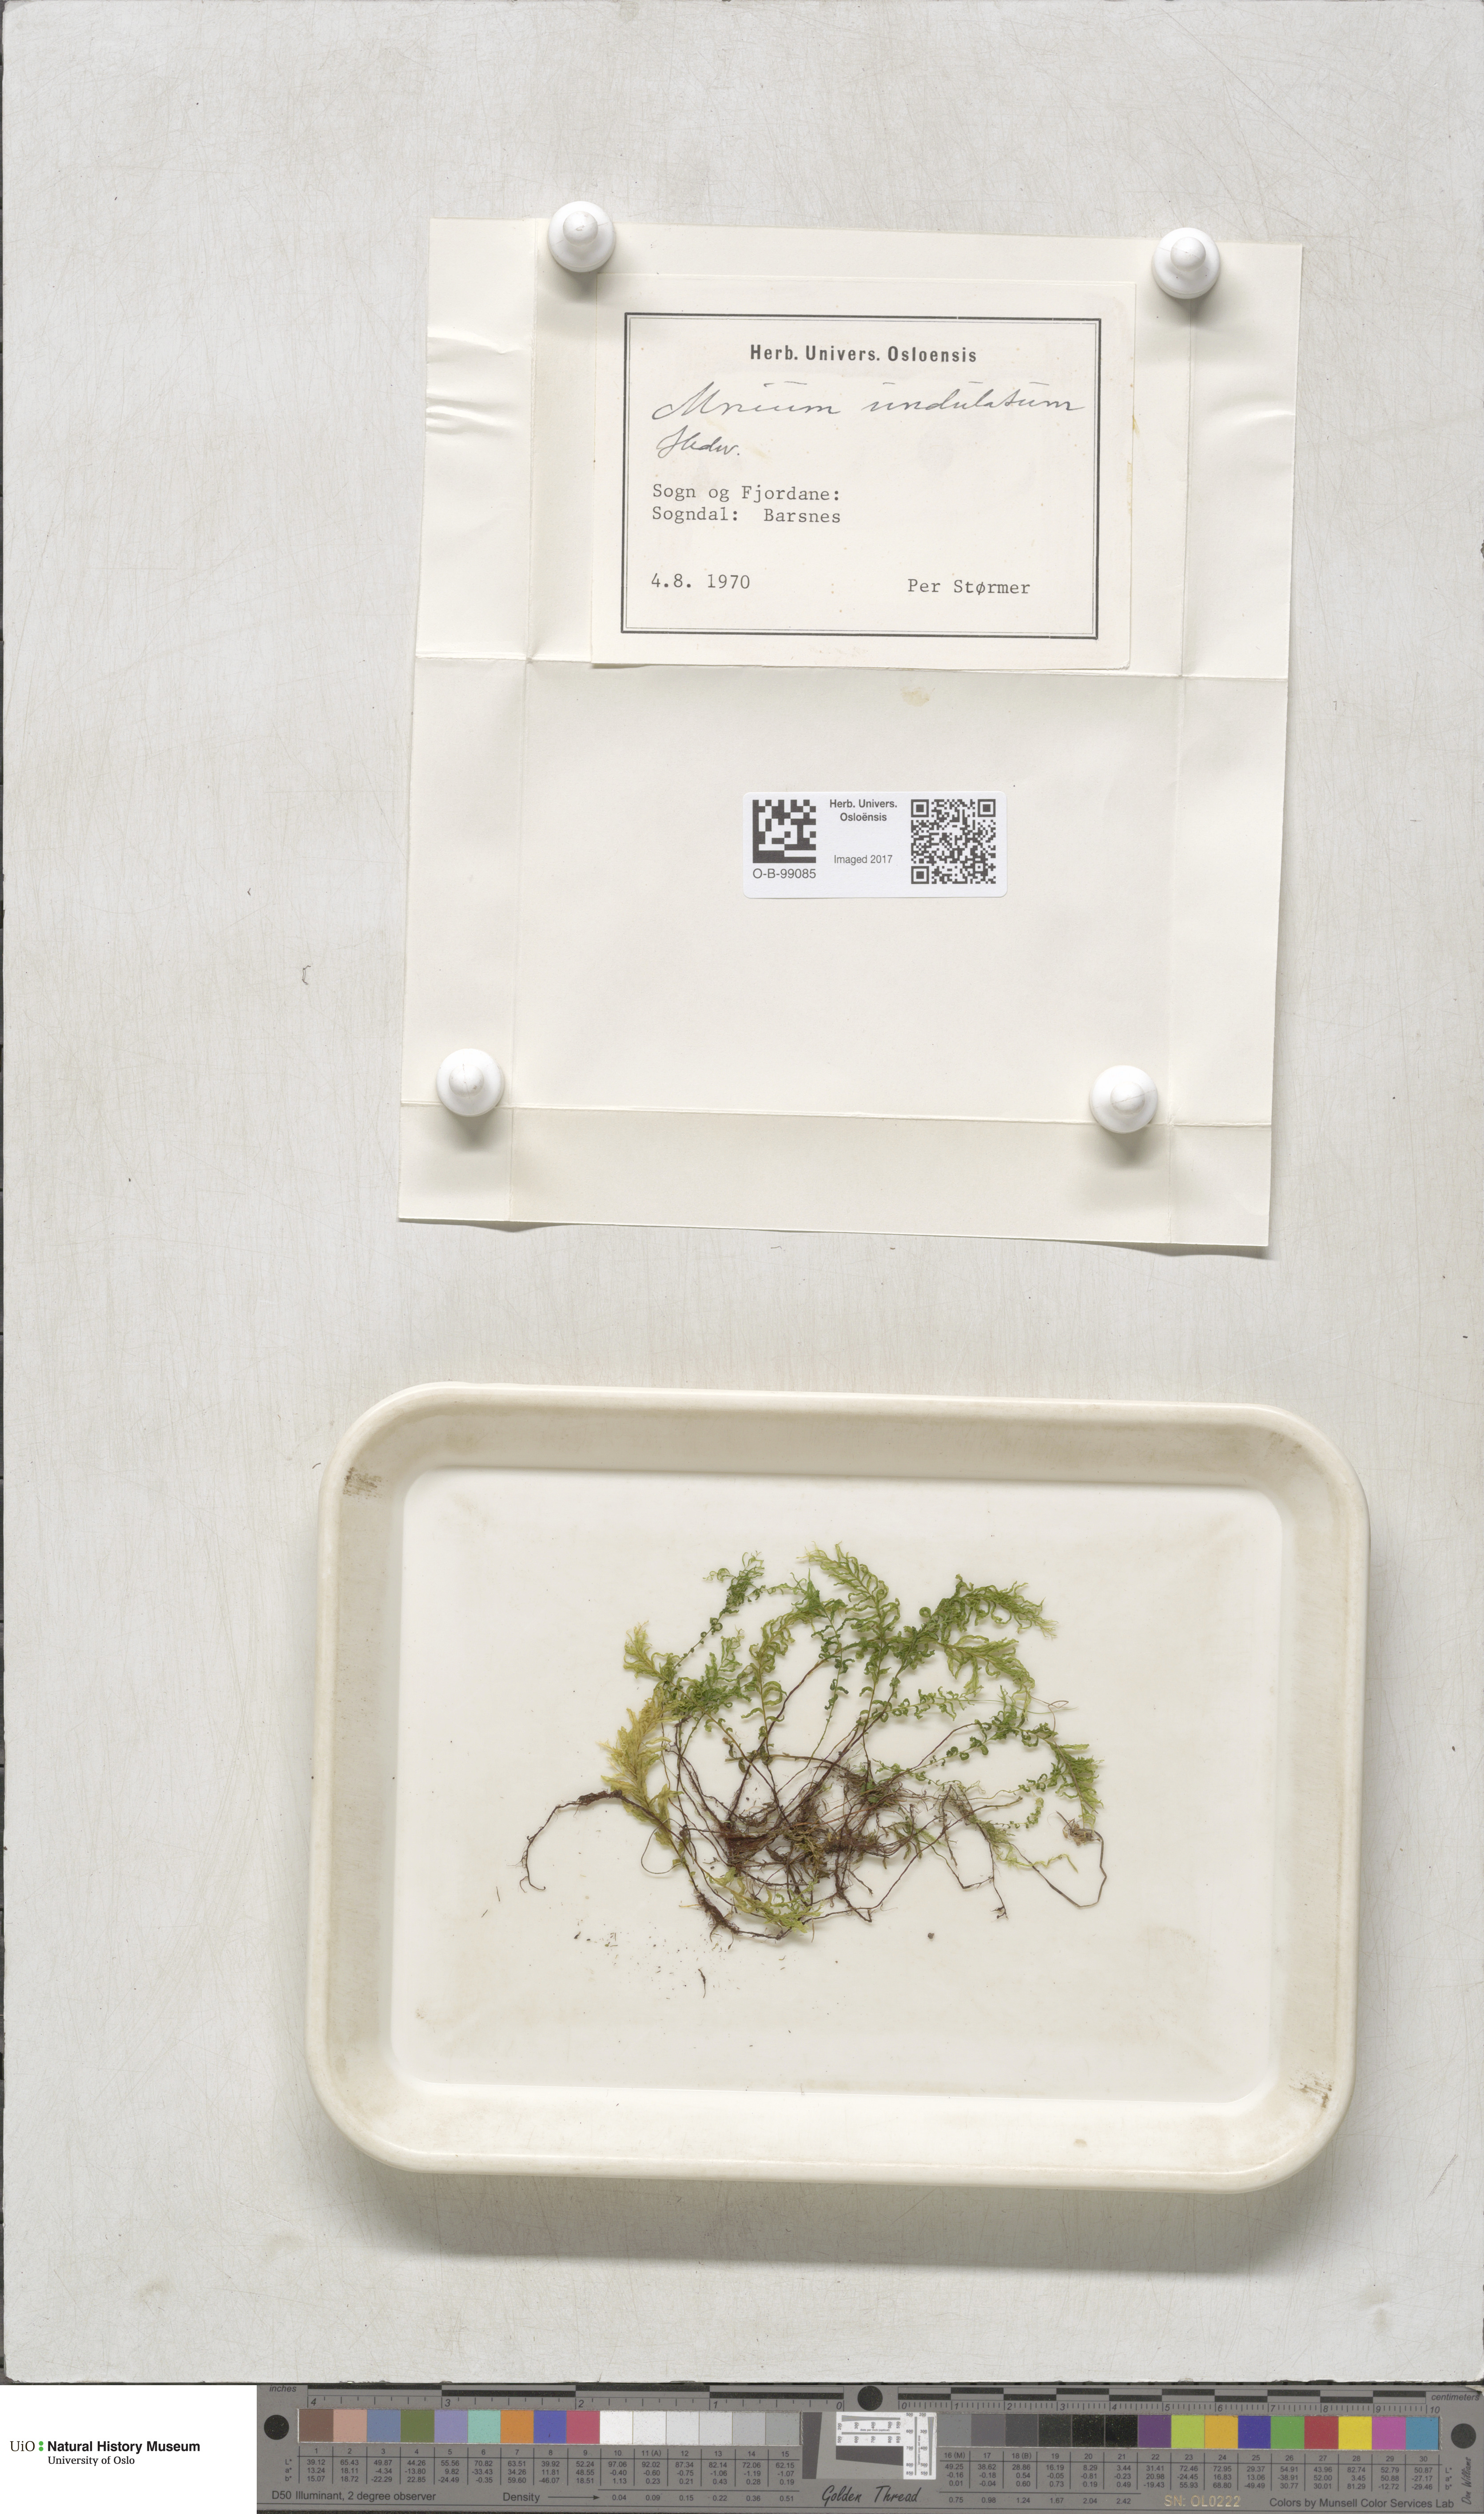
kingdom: Plantae
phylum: Bryophyta
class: Bryopsida
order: Bryales
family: Mniaceae
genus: Plagiomnium
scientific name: Plagiomnium undulatum
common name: Hart's-tongue thyme-moss
